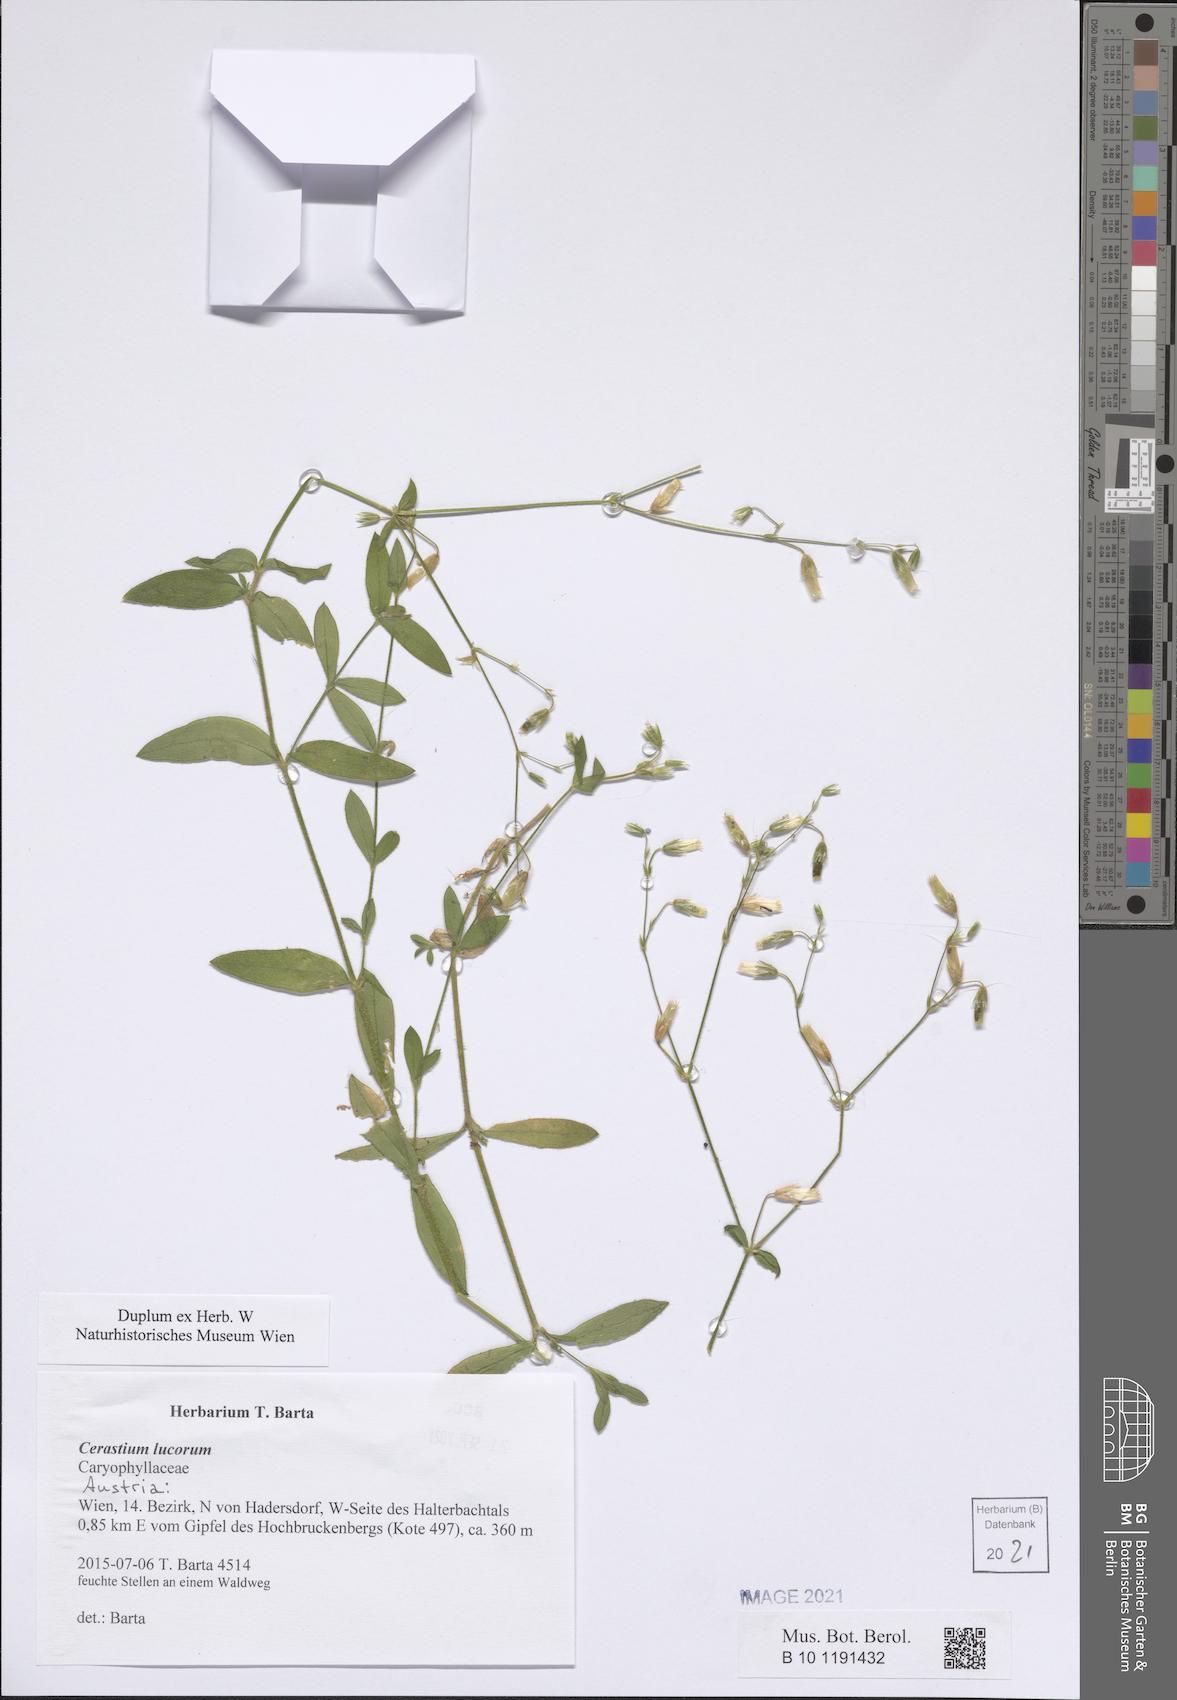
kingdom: Plantae
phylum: Tracheophyta
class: Magnoliopsida
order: Caryophyllales
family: Caryophyllaceae
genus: Cerastium
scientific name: Cerastium lucorum
